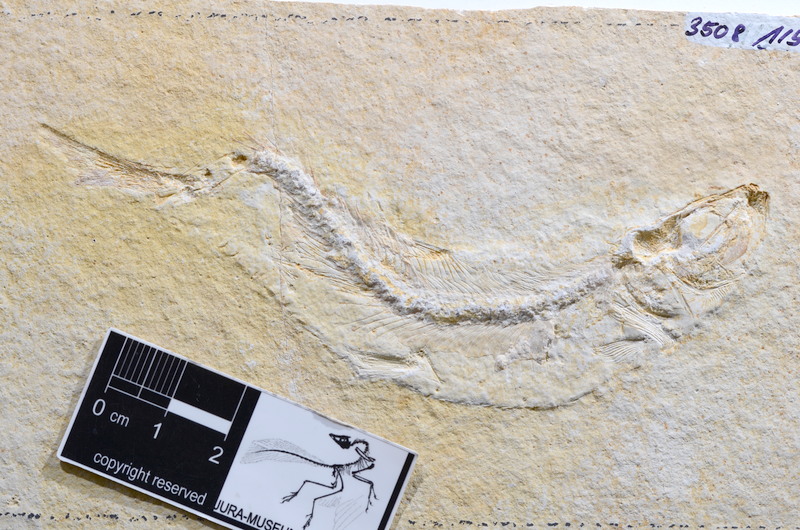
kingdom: Animalia
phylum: Chordata
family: Ascalaboidae
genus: Tharsis
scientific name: Tharsis dubius
